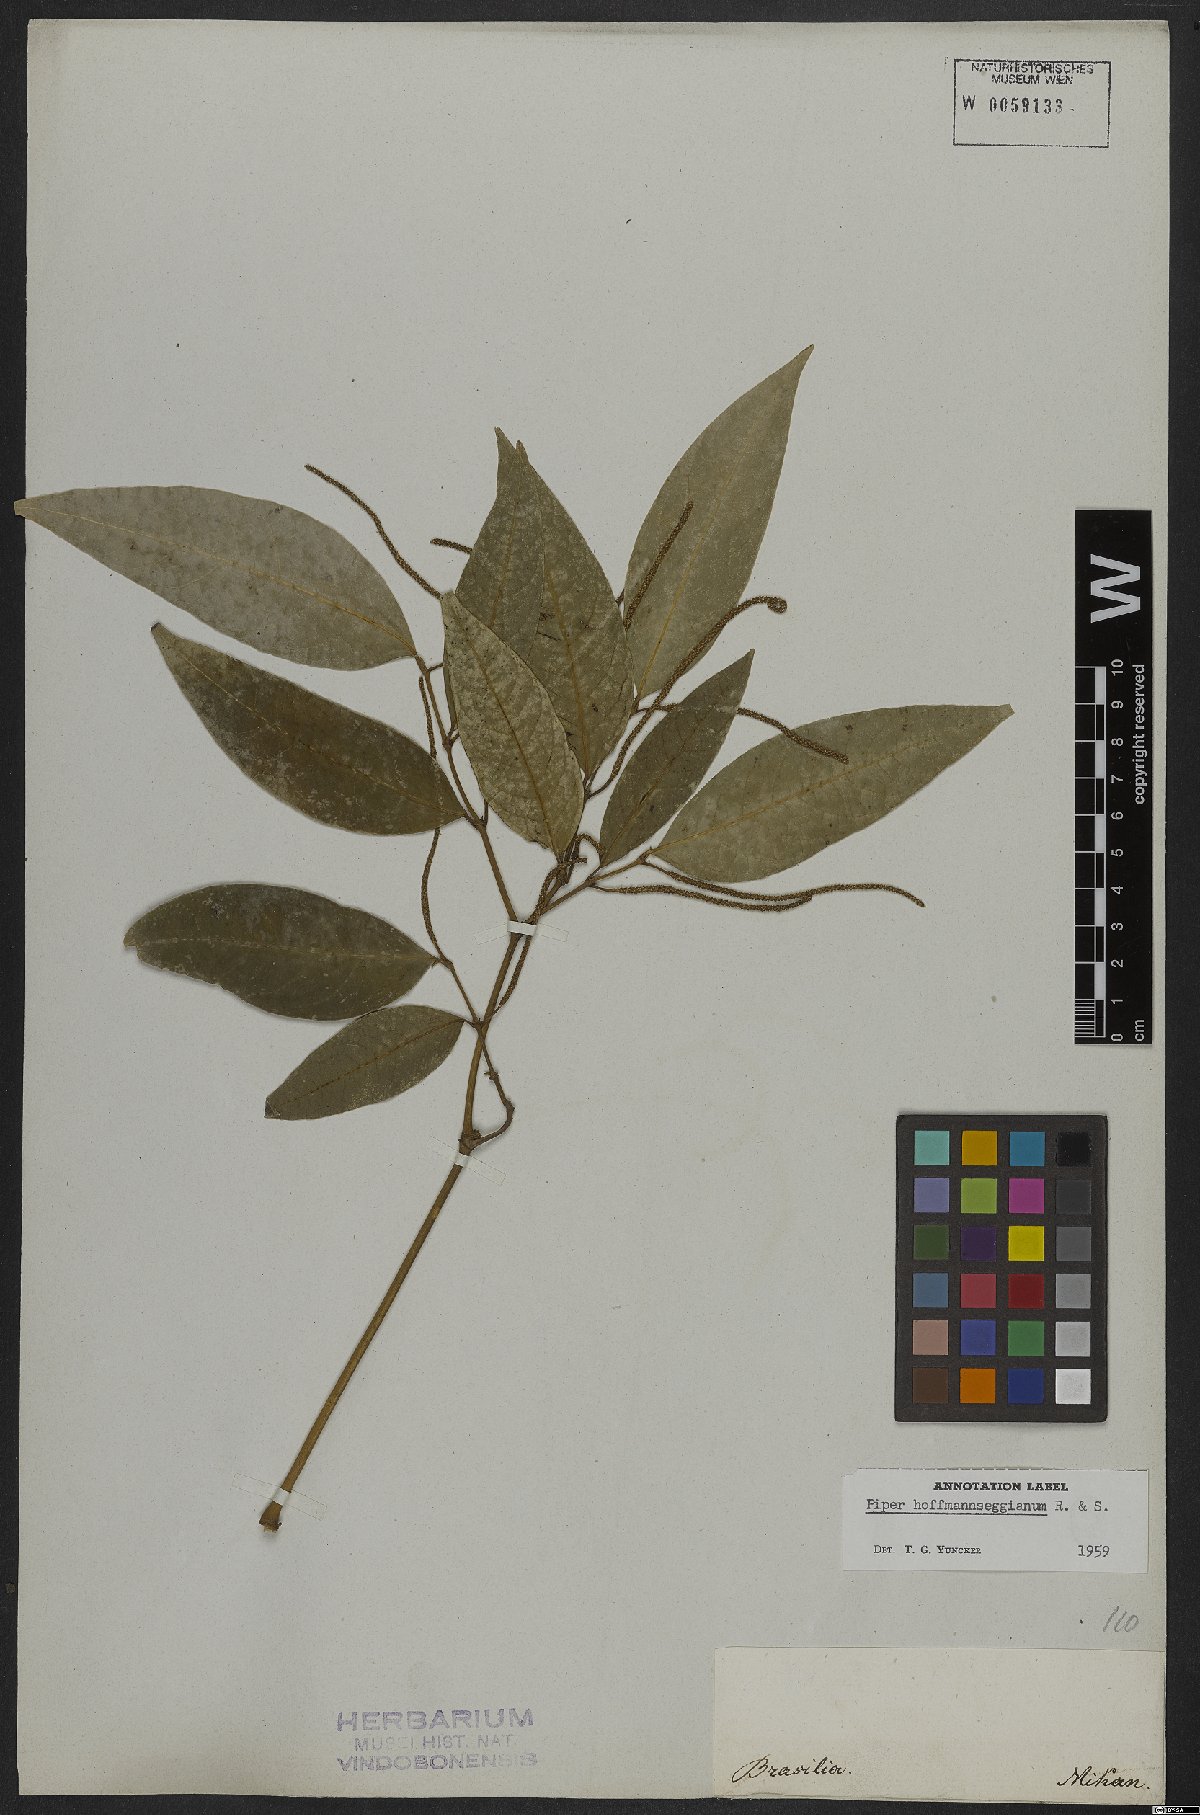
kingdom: Plantae
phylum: Tracheophyta
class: Magnoliopsida
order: Piperales
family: Piperaceae
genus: Piper
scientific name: Piper hoffmannseggianum
